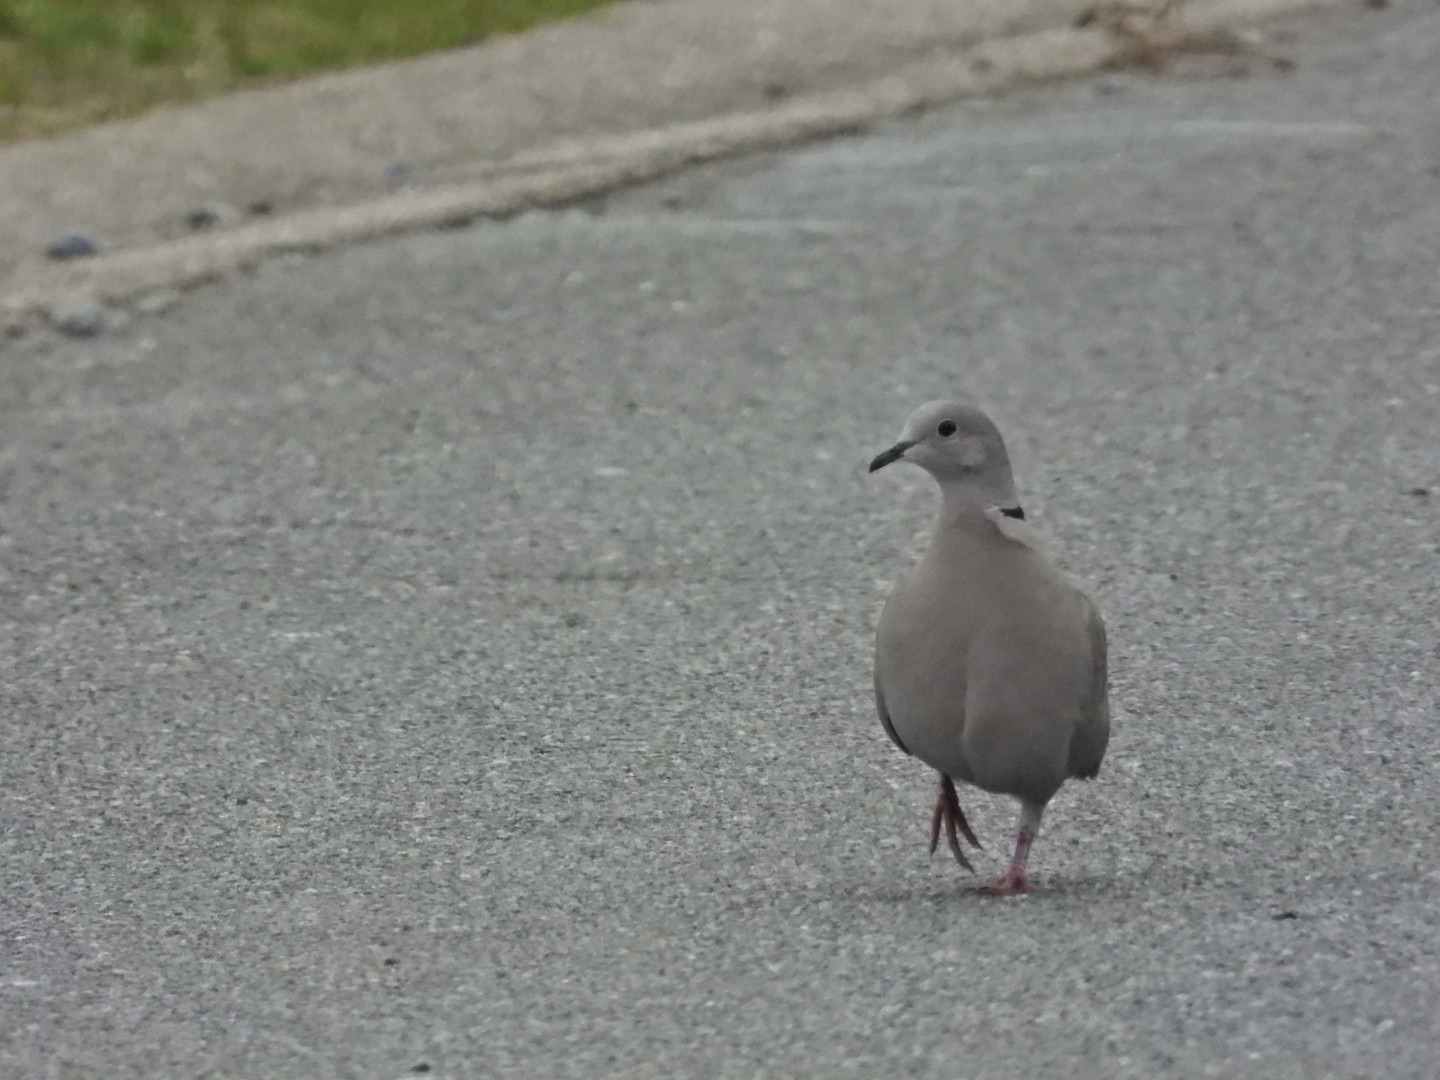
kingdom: Animalia
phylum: Chordata
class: Aves
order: Columbiformes
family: Columbidae
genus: Streptopelia
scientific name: Streptopelia decaocto
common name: Tyrkerdue
